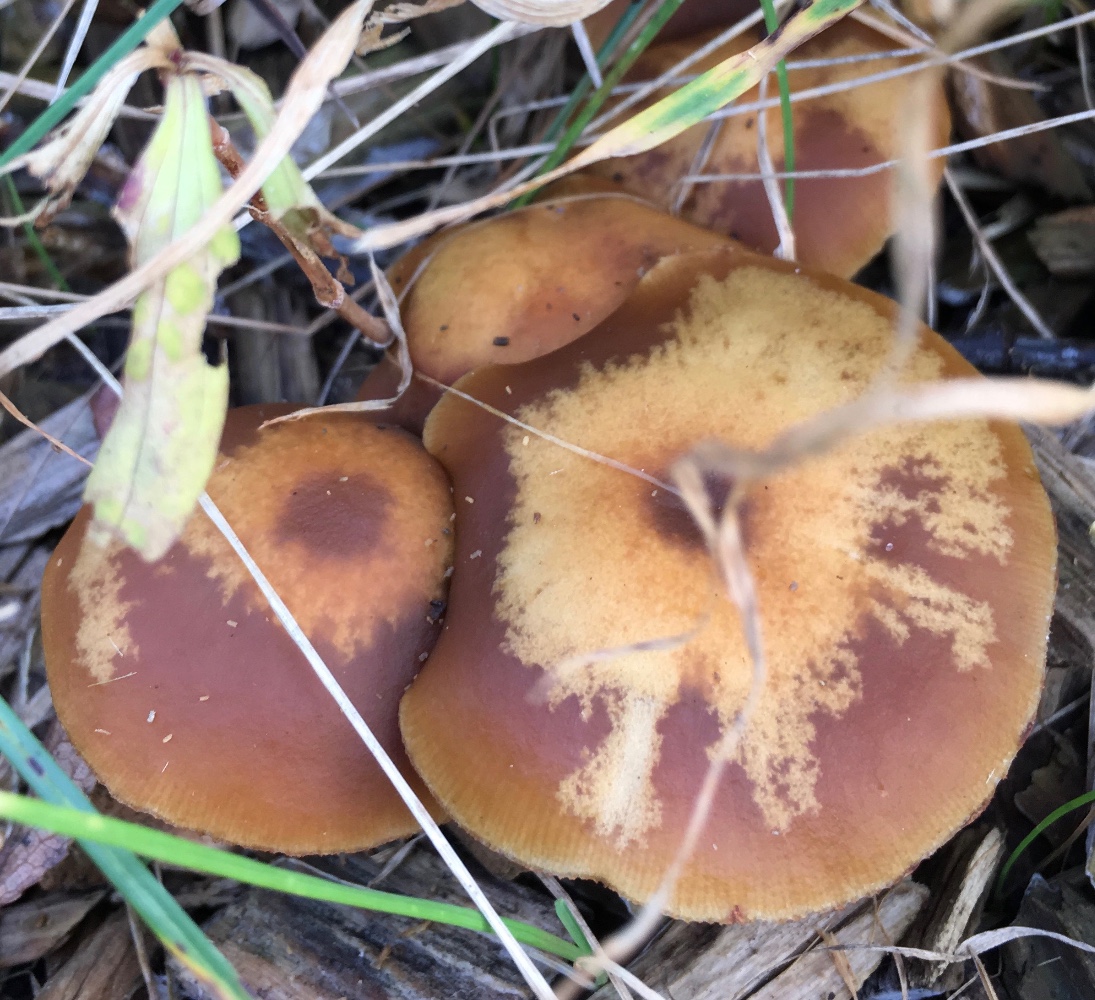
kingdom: Fungi
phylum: Basidiomycota
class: Agaricomycetes
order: Agaricales
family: Hymenogastraceae
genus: Galerina
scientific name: Galerina marginata
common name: randbæltet hjelmhat
